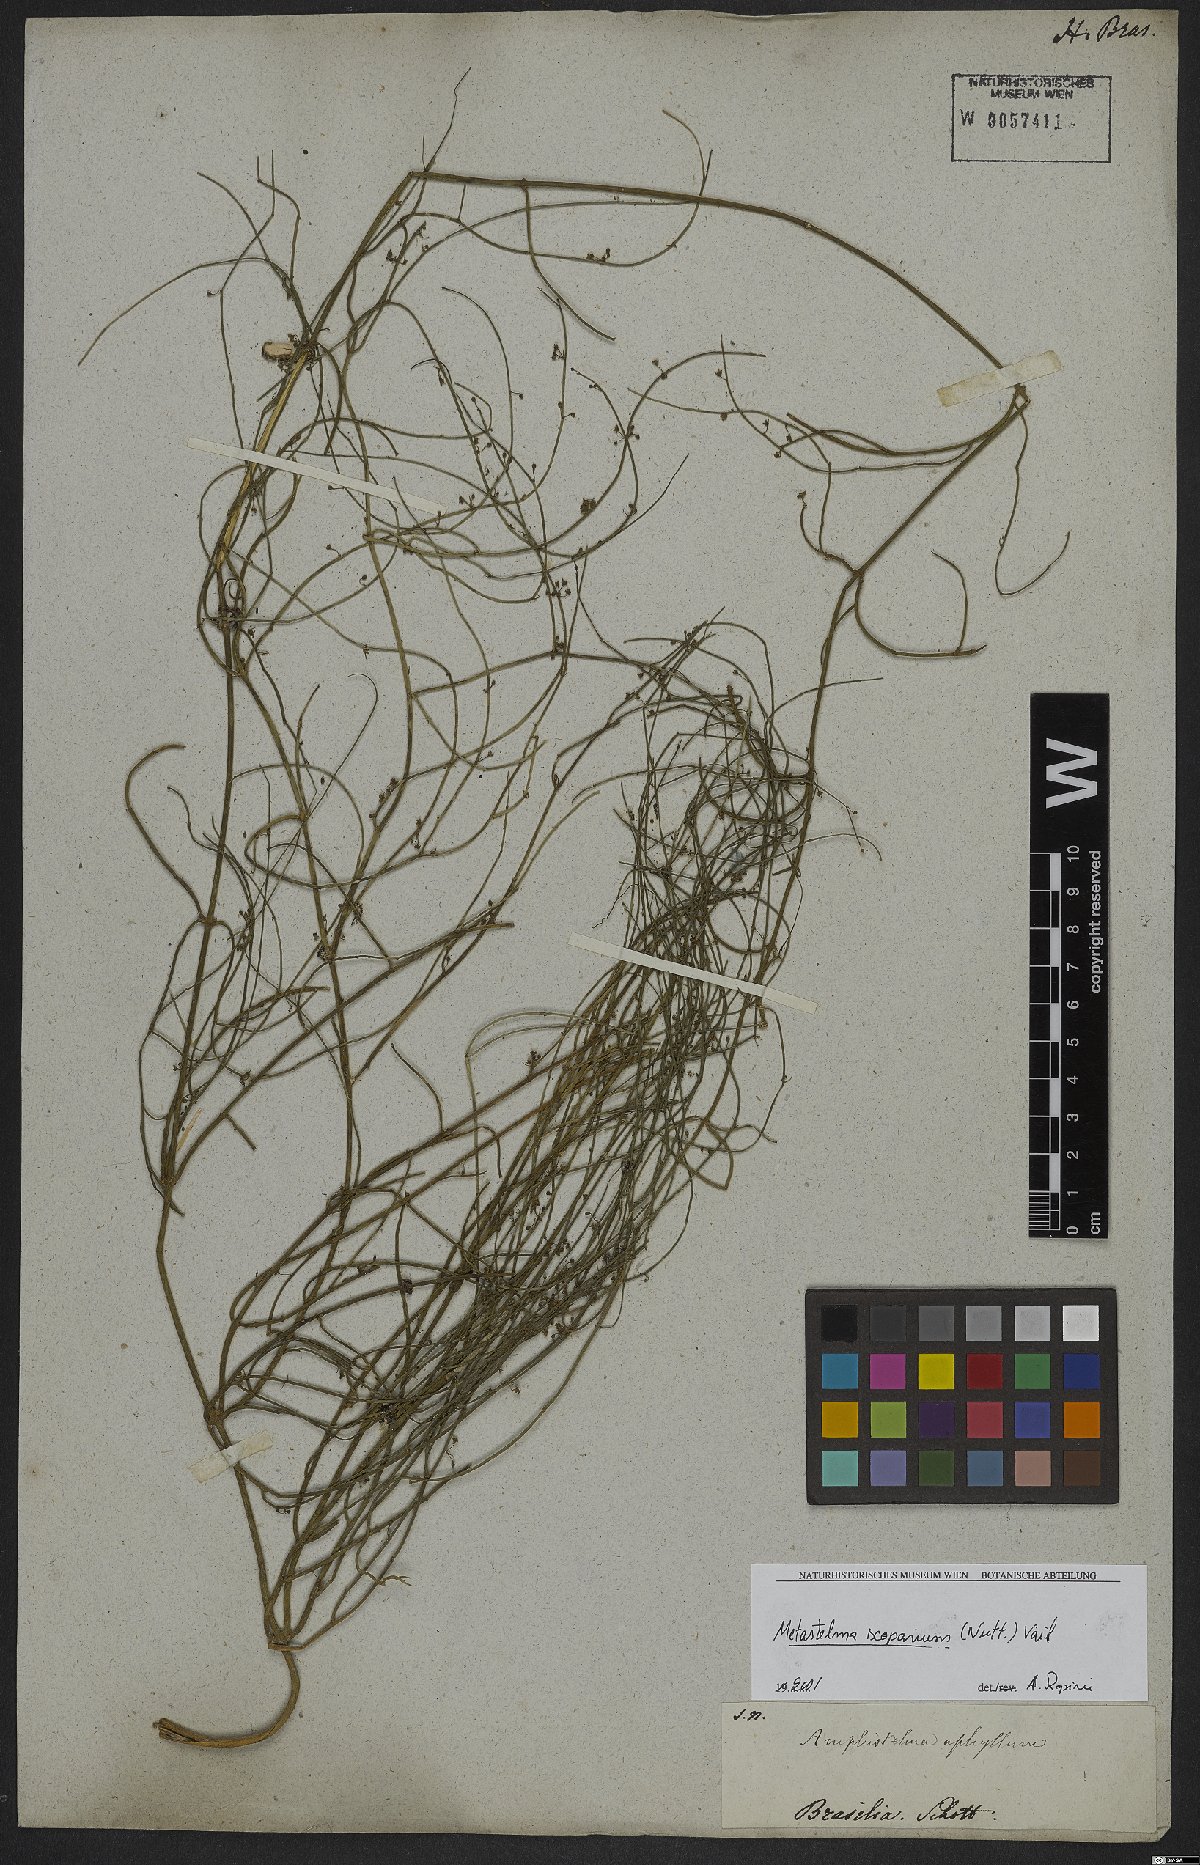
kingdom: Plantae
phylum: Tracheophyta
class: Magnoliopsida
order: Gentianales
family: Apocynaceae
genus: Orthosia
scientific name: Orthosia scoparia
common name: Leafless swallow-wort
